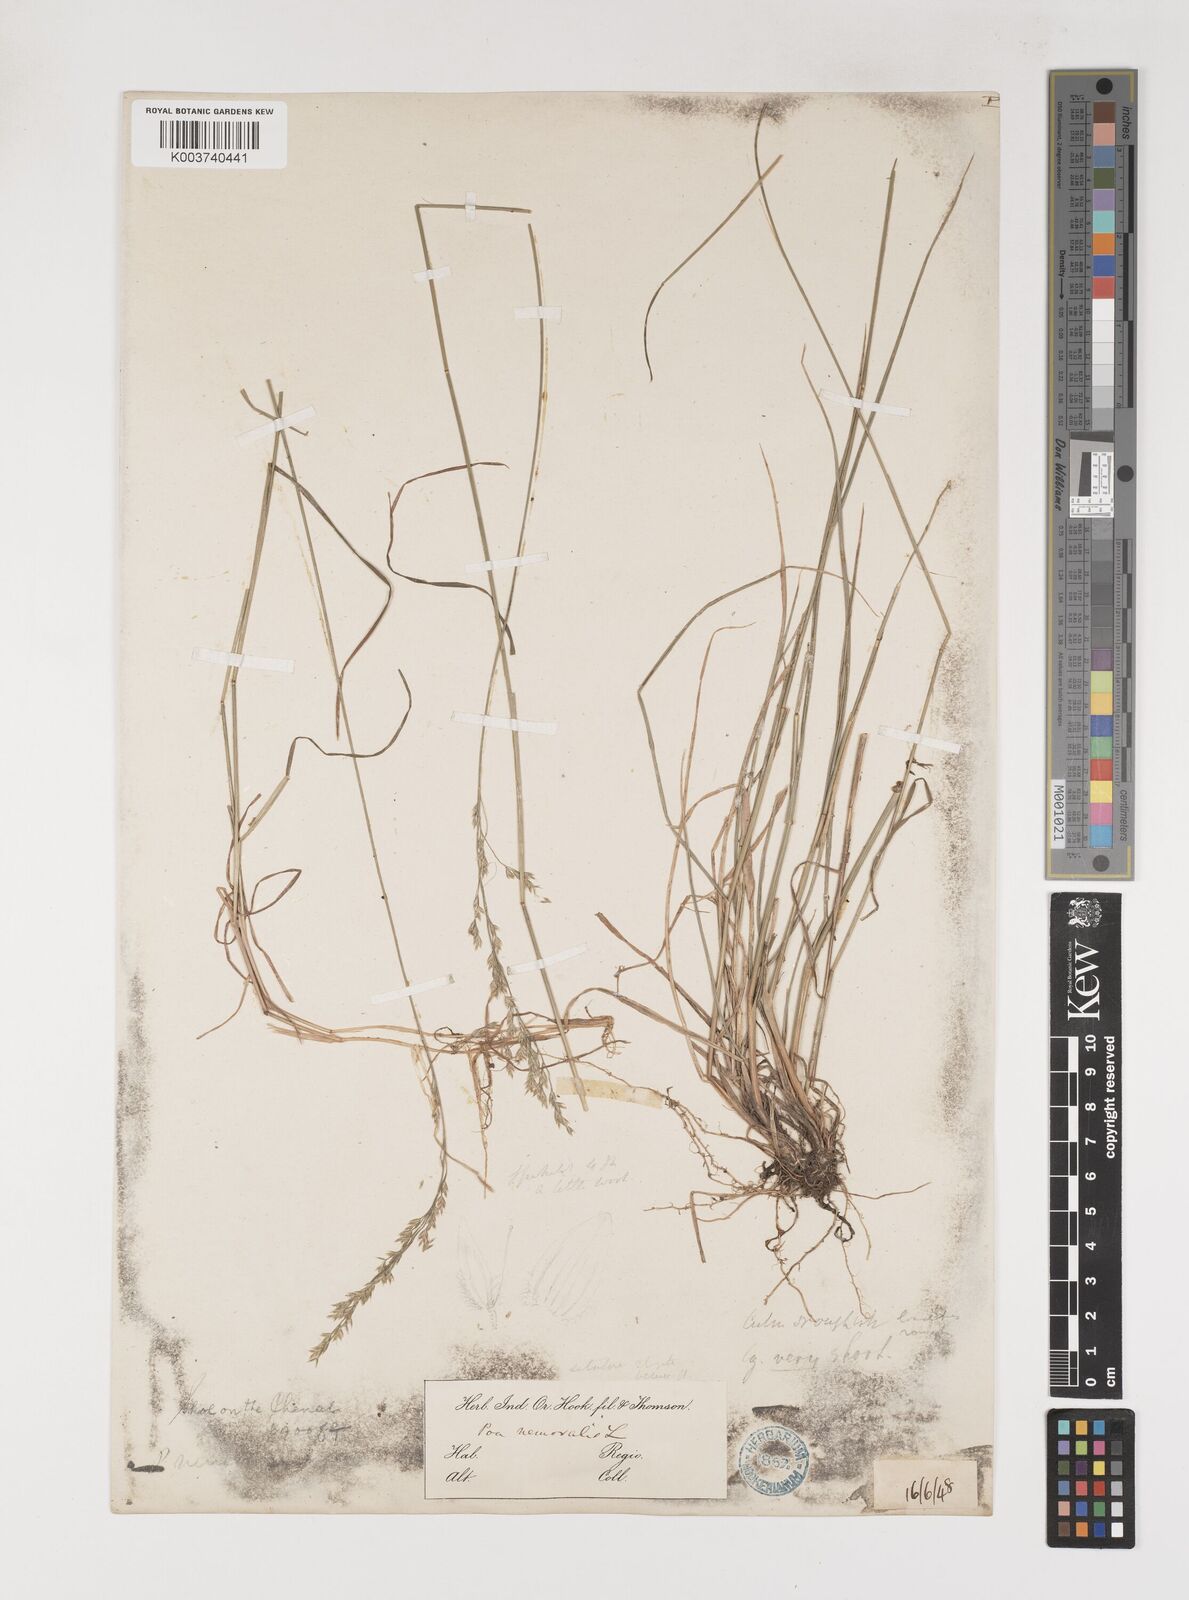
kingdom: Plantae
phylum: Tracheophyta
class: Liliopsida
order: Poales
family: Poaceae
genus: Poa
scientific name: Poa nemoralis
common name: Wood bluegrass
